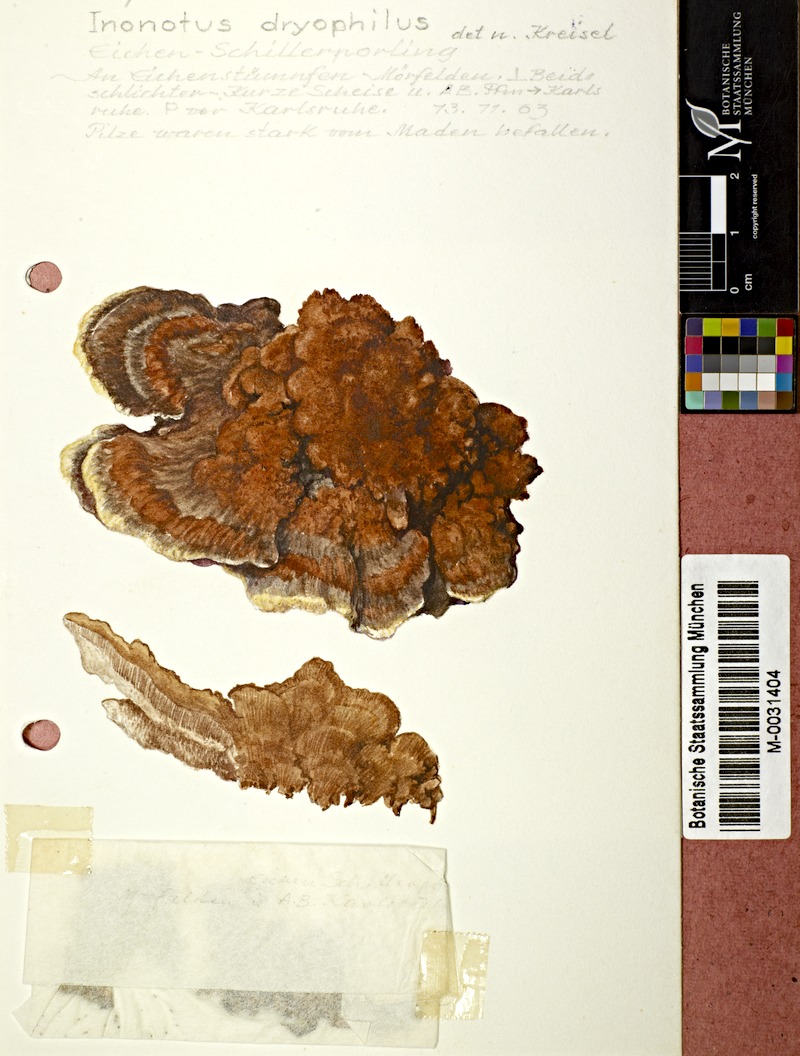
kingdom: Fungi
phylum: Basidiomycota
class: Agaricomycetes
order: Hymenochaetales
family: Hymenochaetaceae
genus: Inocutis
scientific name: Inocutis dryophila
